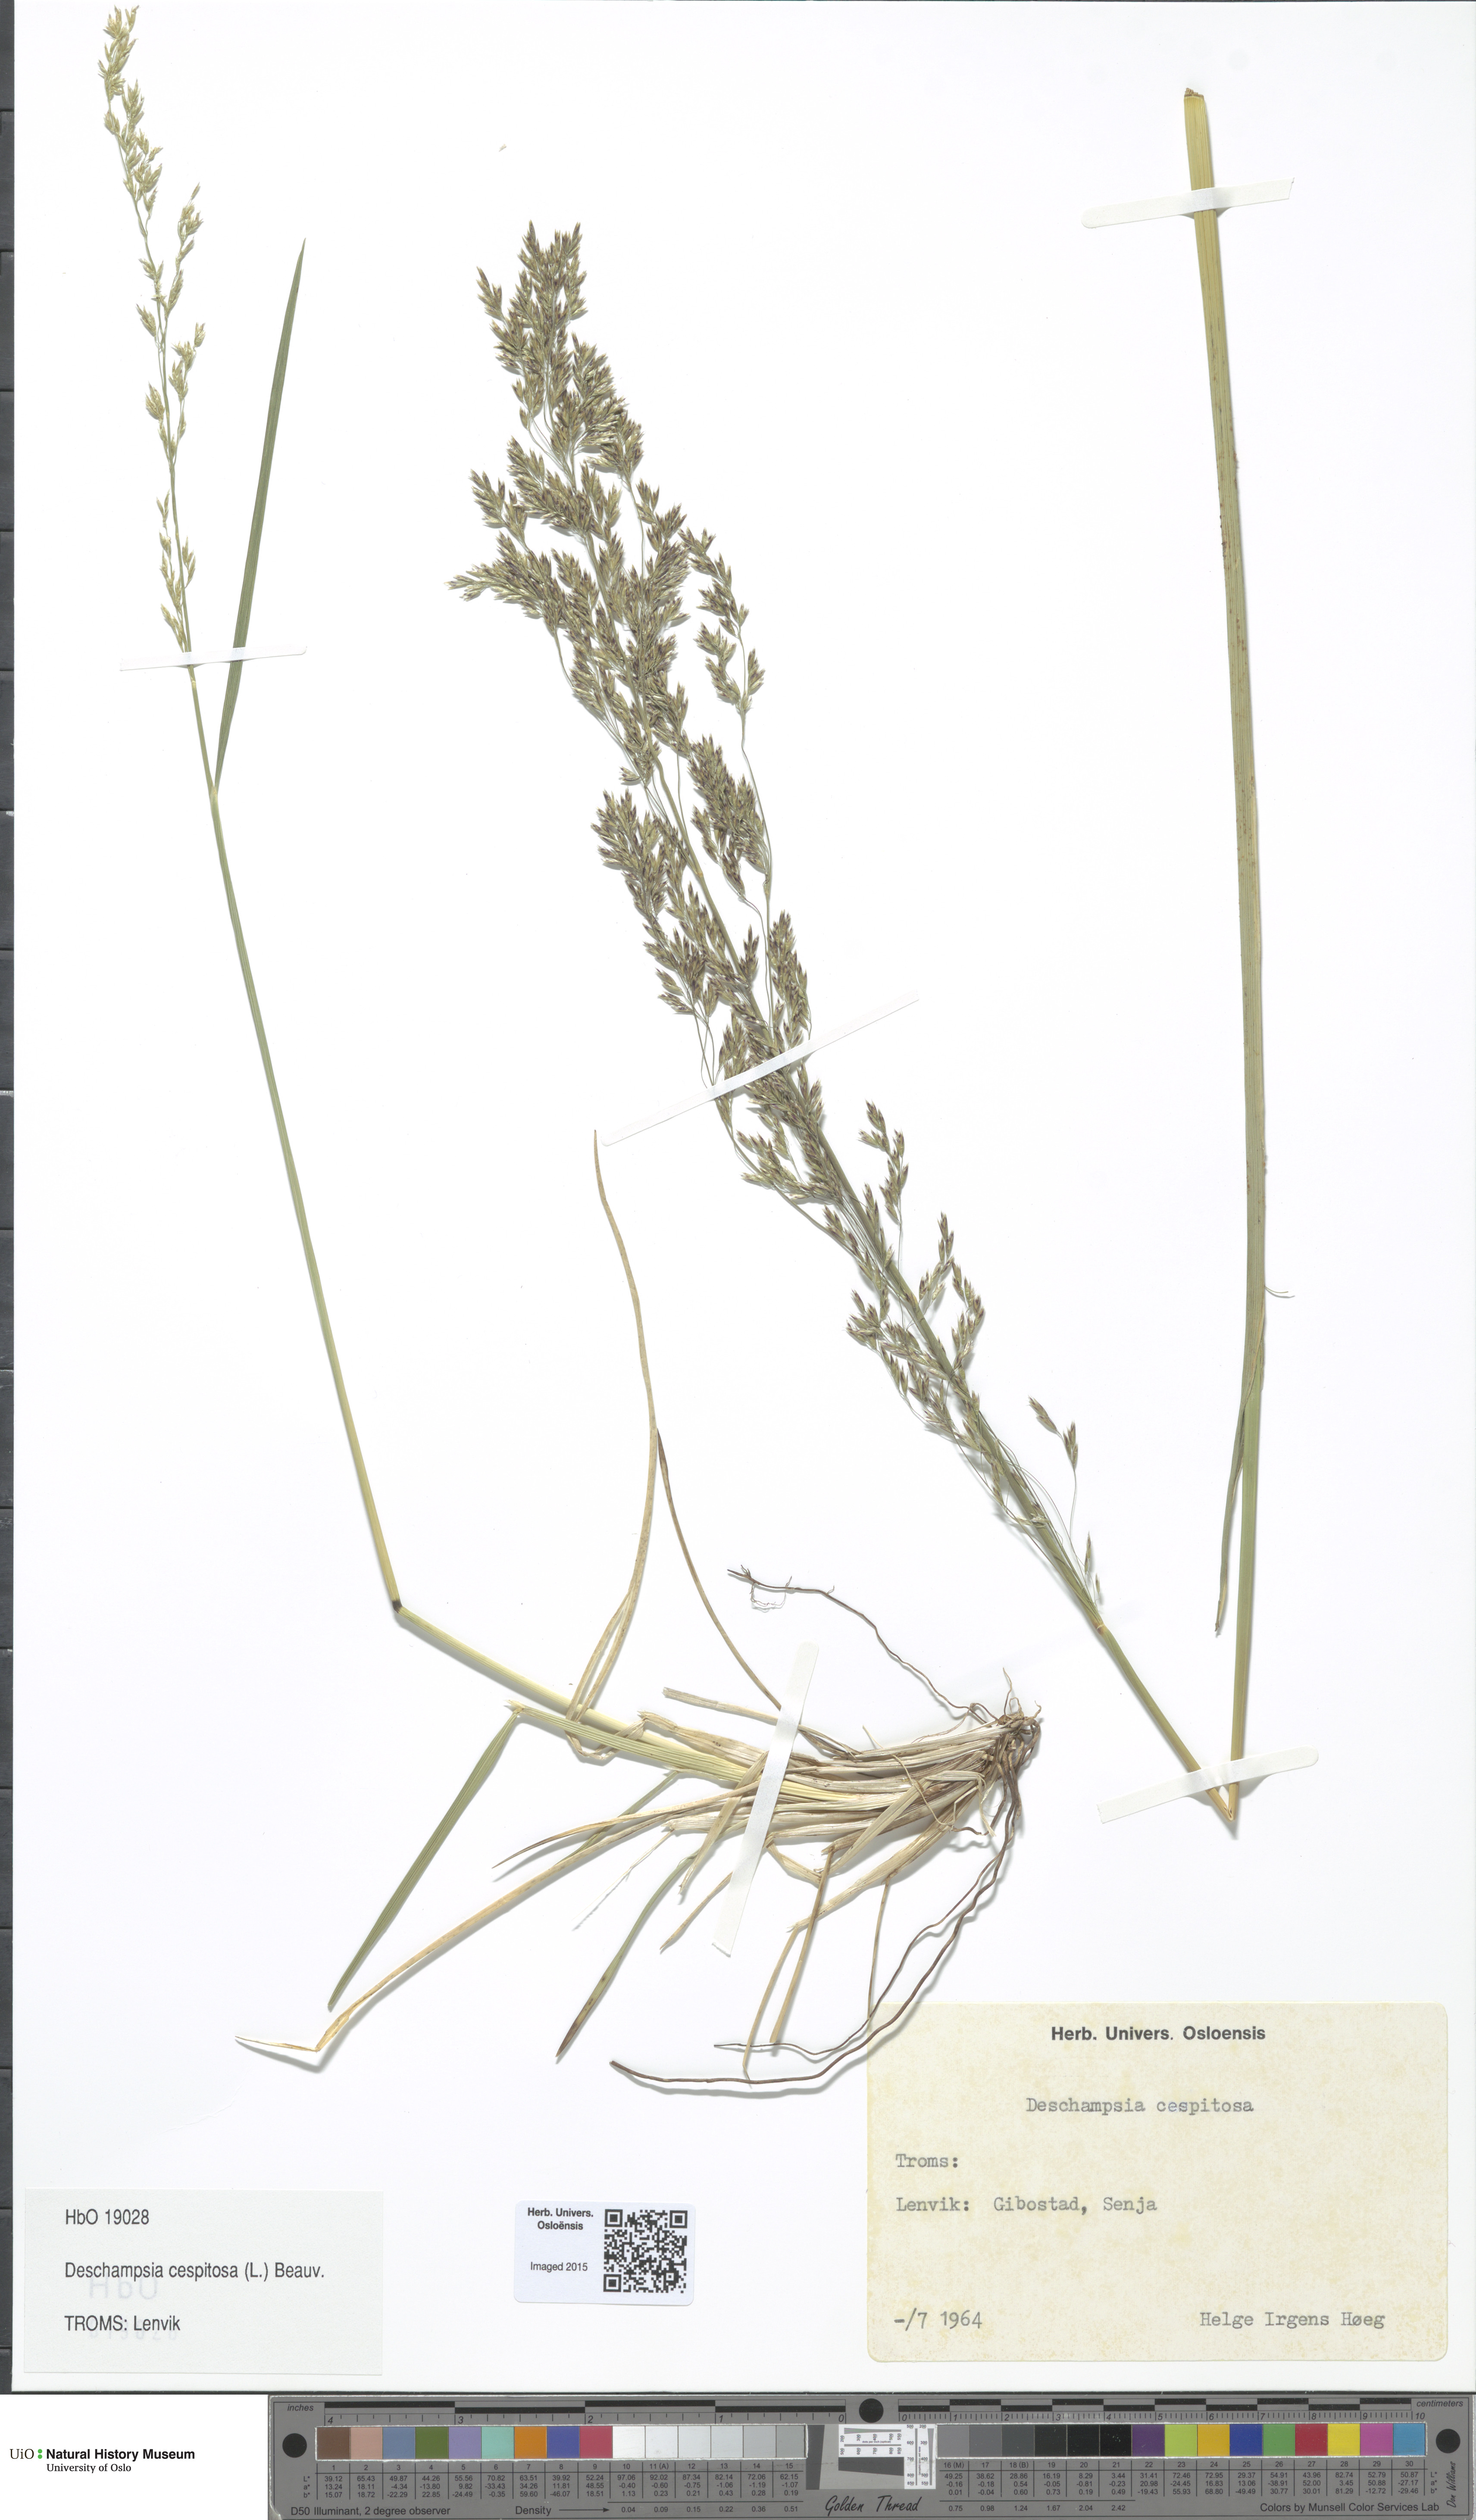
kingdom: Plantae
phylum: Tracheophyta
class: Liliopsida
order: Poales
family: Poaceae
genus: Deschampsia
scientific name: Deschampsia cespitosa
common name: Tufted hair-grass
